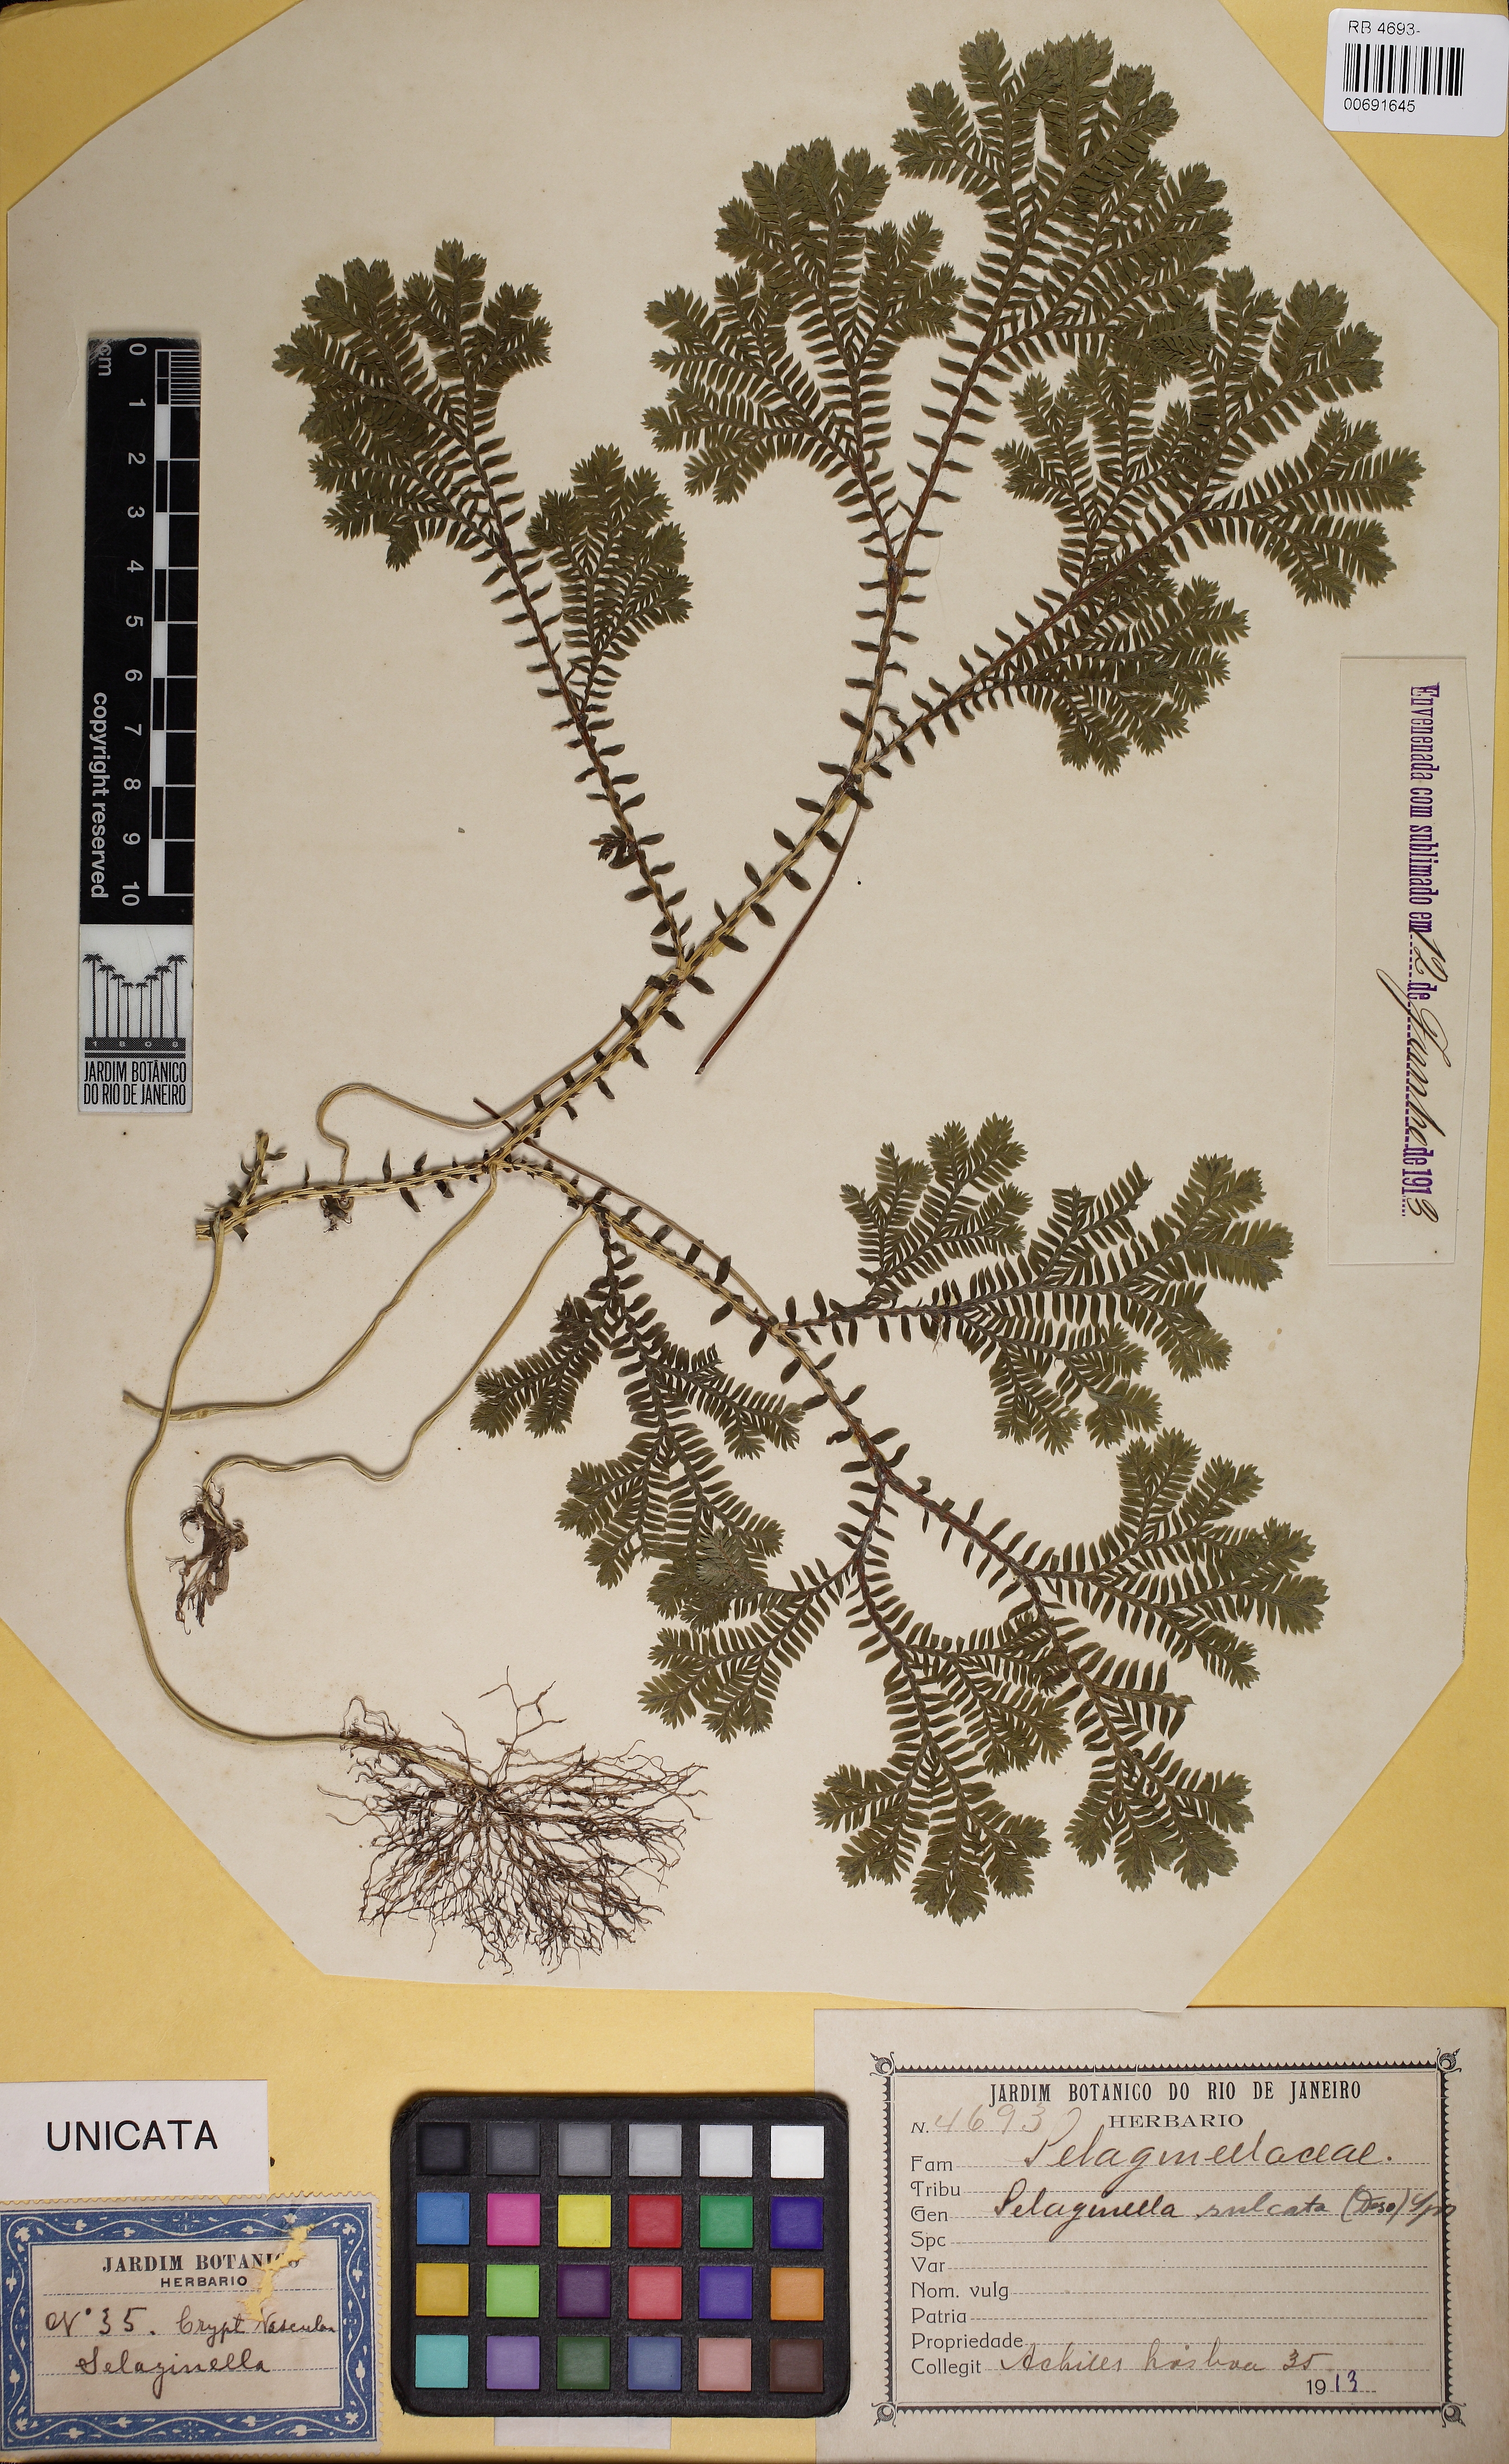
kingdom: Plantae
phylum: Tracheophyta
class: Lycopodiopsida
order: Selaginellales
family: Selaginellaceae
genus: Selaginella
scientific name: Selaginella sulcata
